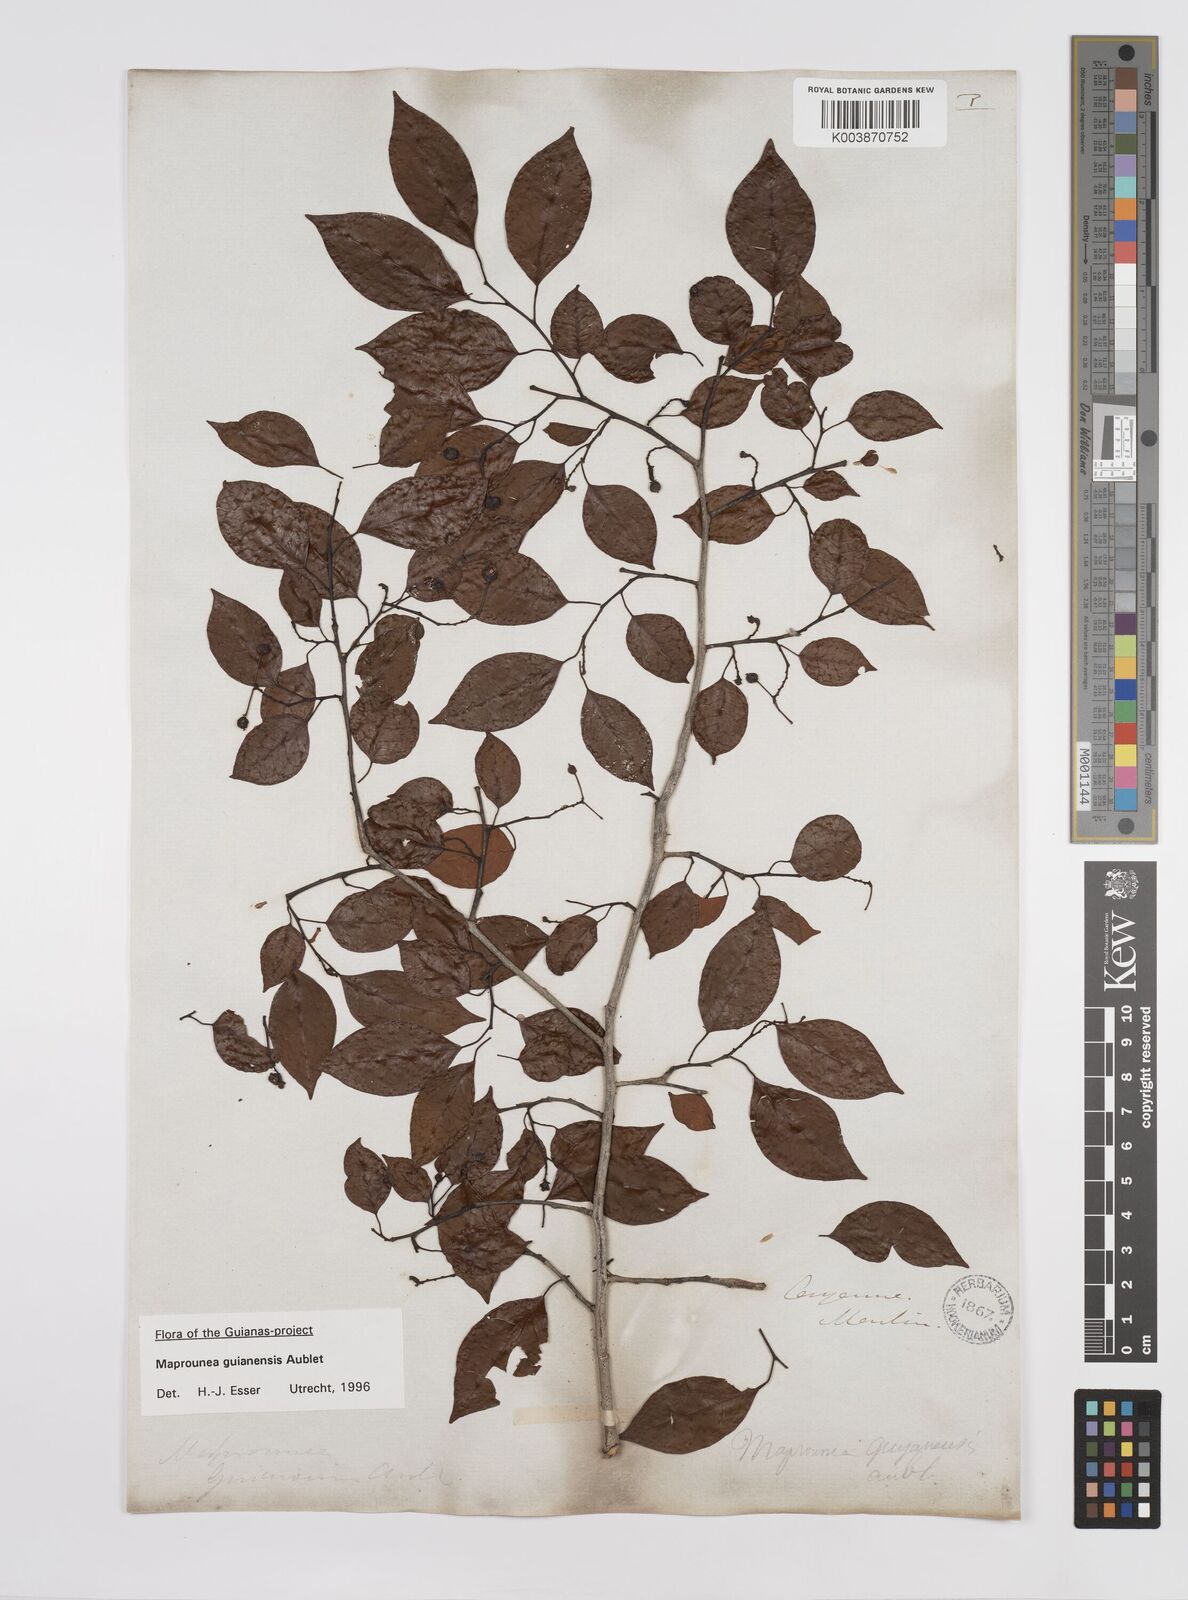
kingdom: Plantae
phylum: Tracheophyta
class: Magnoliopsida
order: Malpighiales
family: Euphorbiaceae
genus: Maprounea
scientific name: Maprounea guianensis
